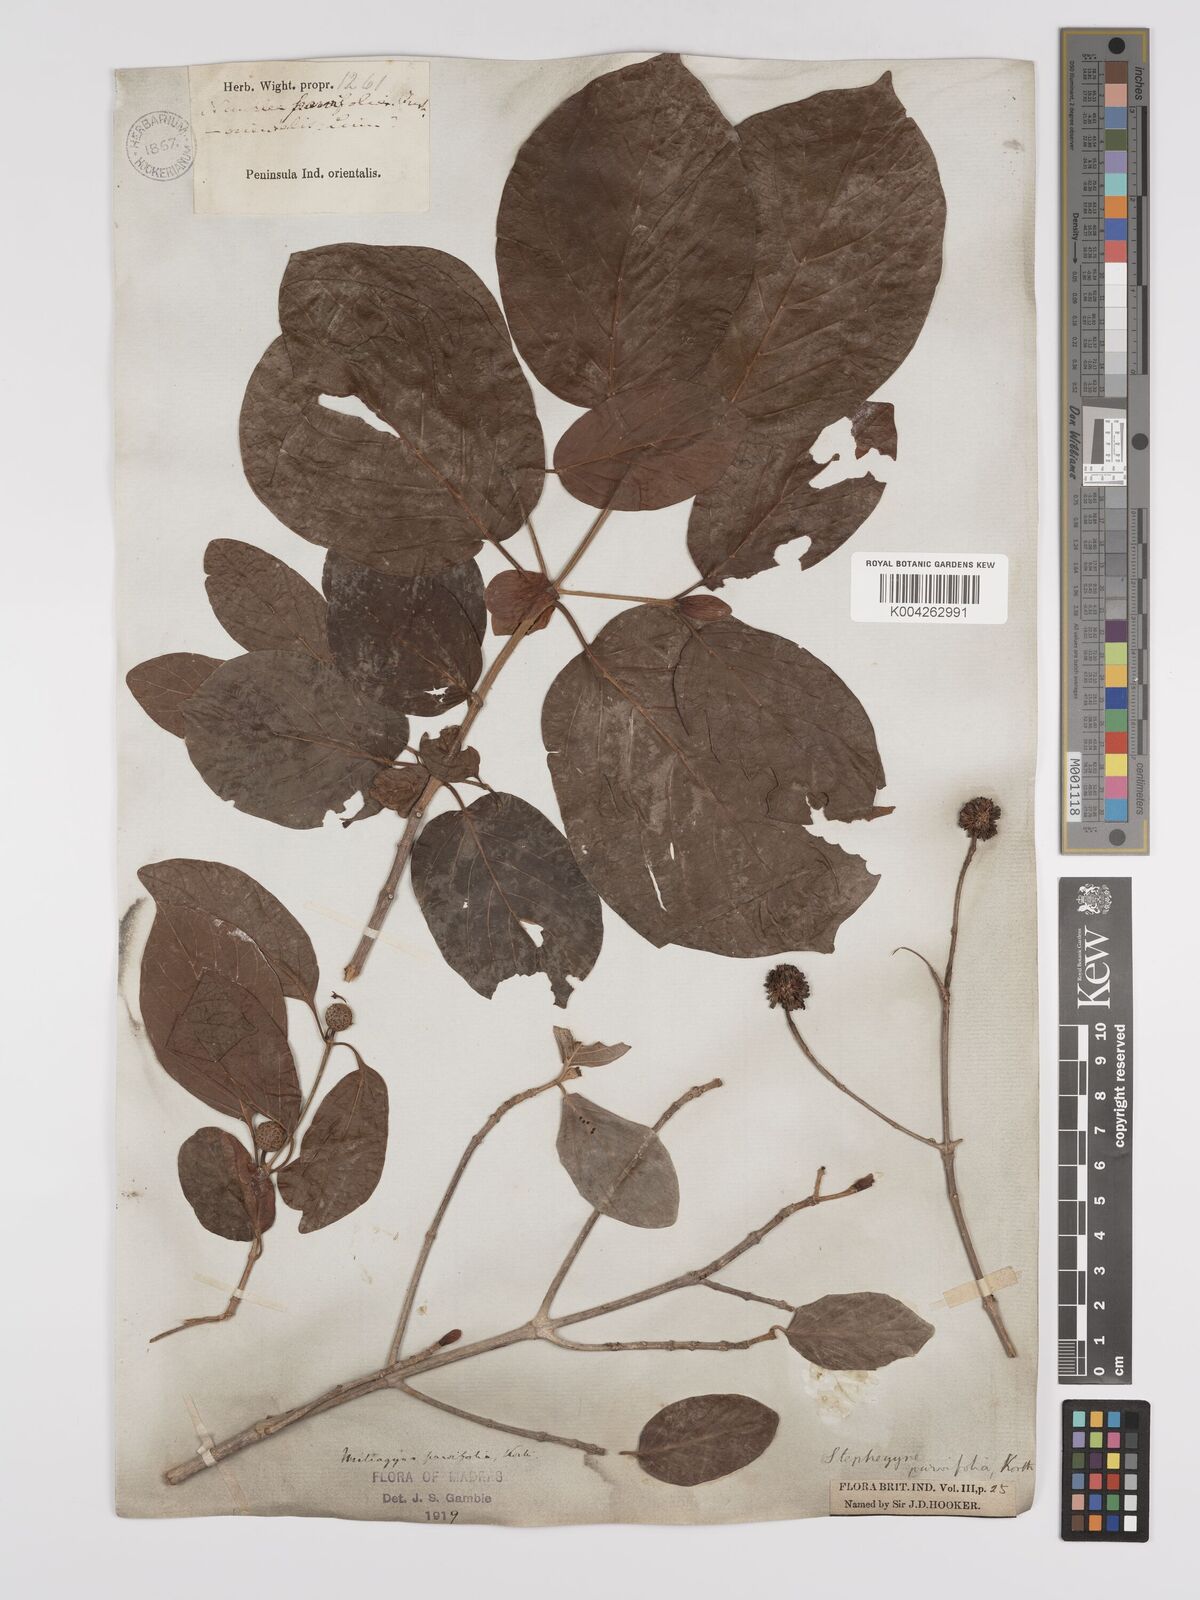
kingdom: Plantae
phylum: Tracheophyta
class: Magnoliopsida
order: Gentianales
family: Rubiaceae
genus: Mitragyna
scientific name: Mitragyna parvifolia
